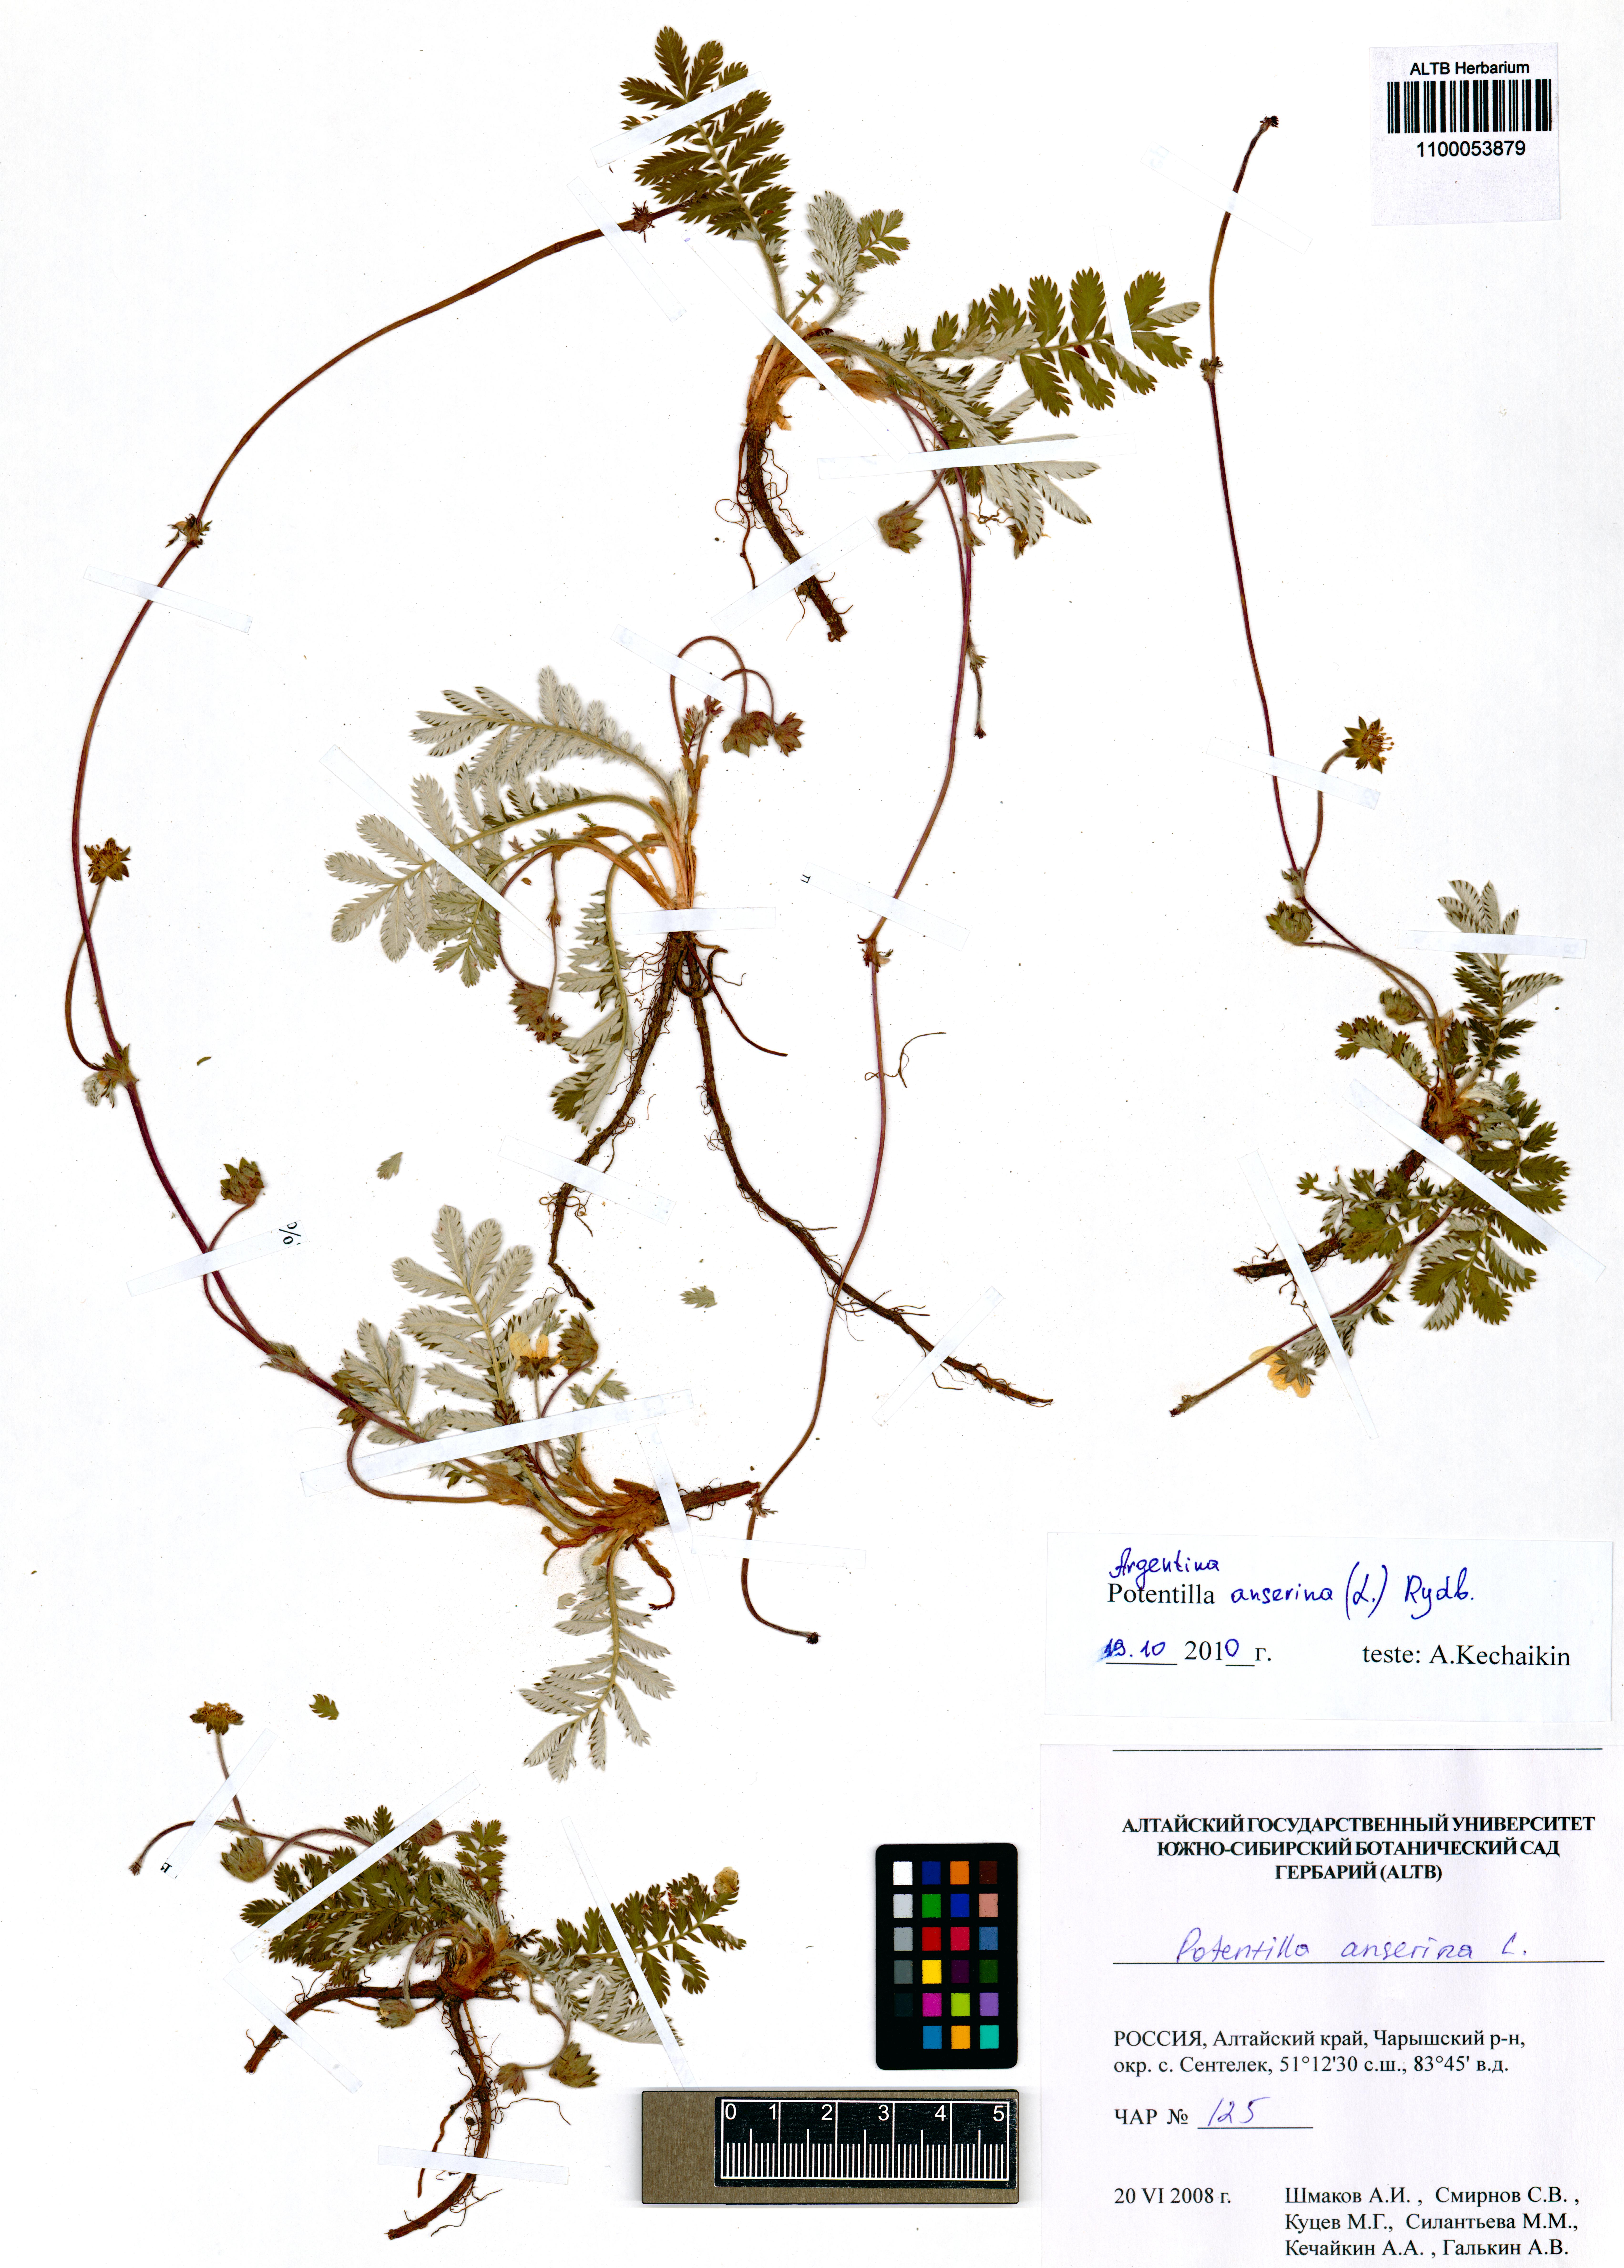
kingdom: Plantae
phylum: Tracheophyta
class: Magnoliopsida
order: Rosales
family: Rosaceae
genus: Argentina
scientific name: Argentina anserina
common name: Common silverweed
